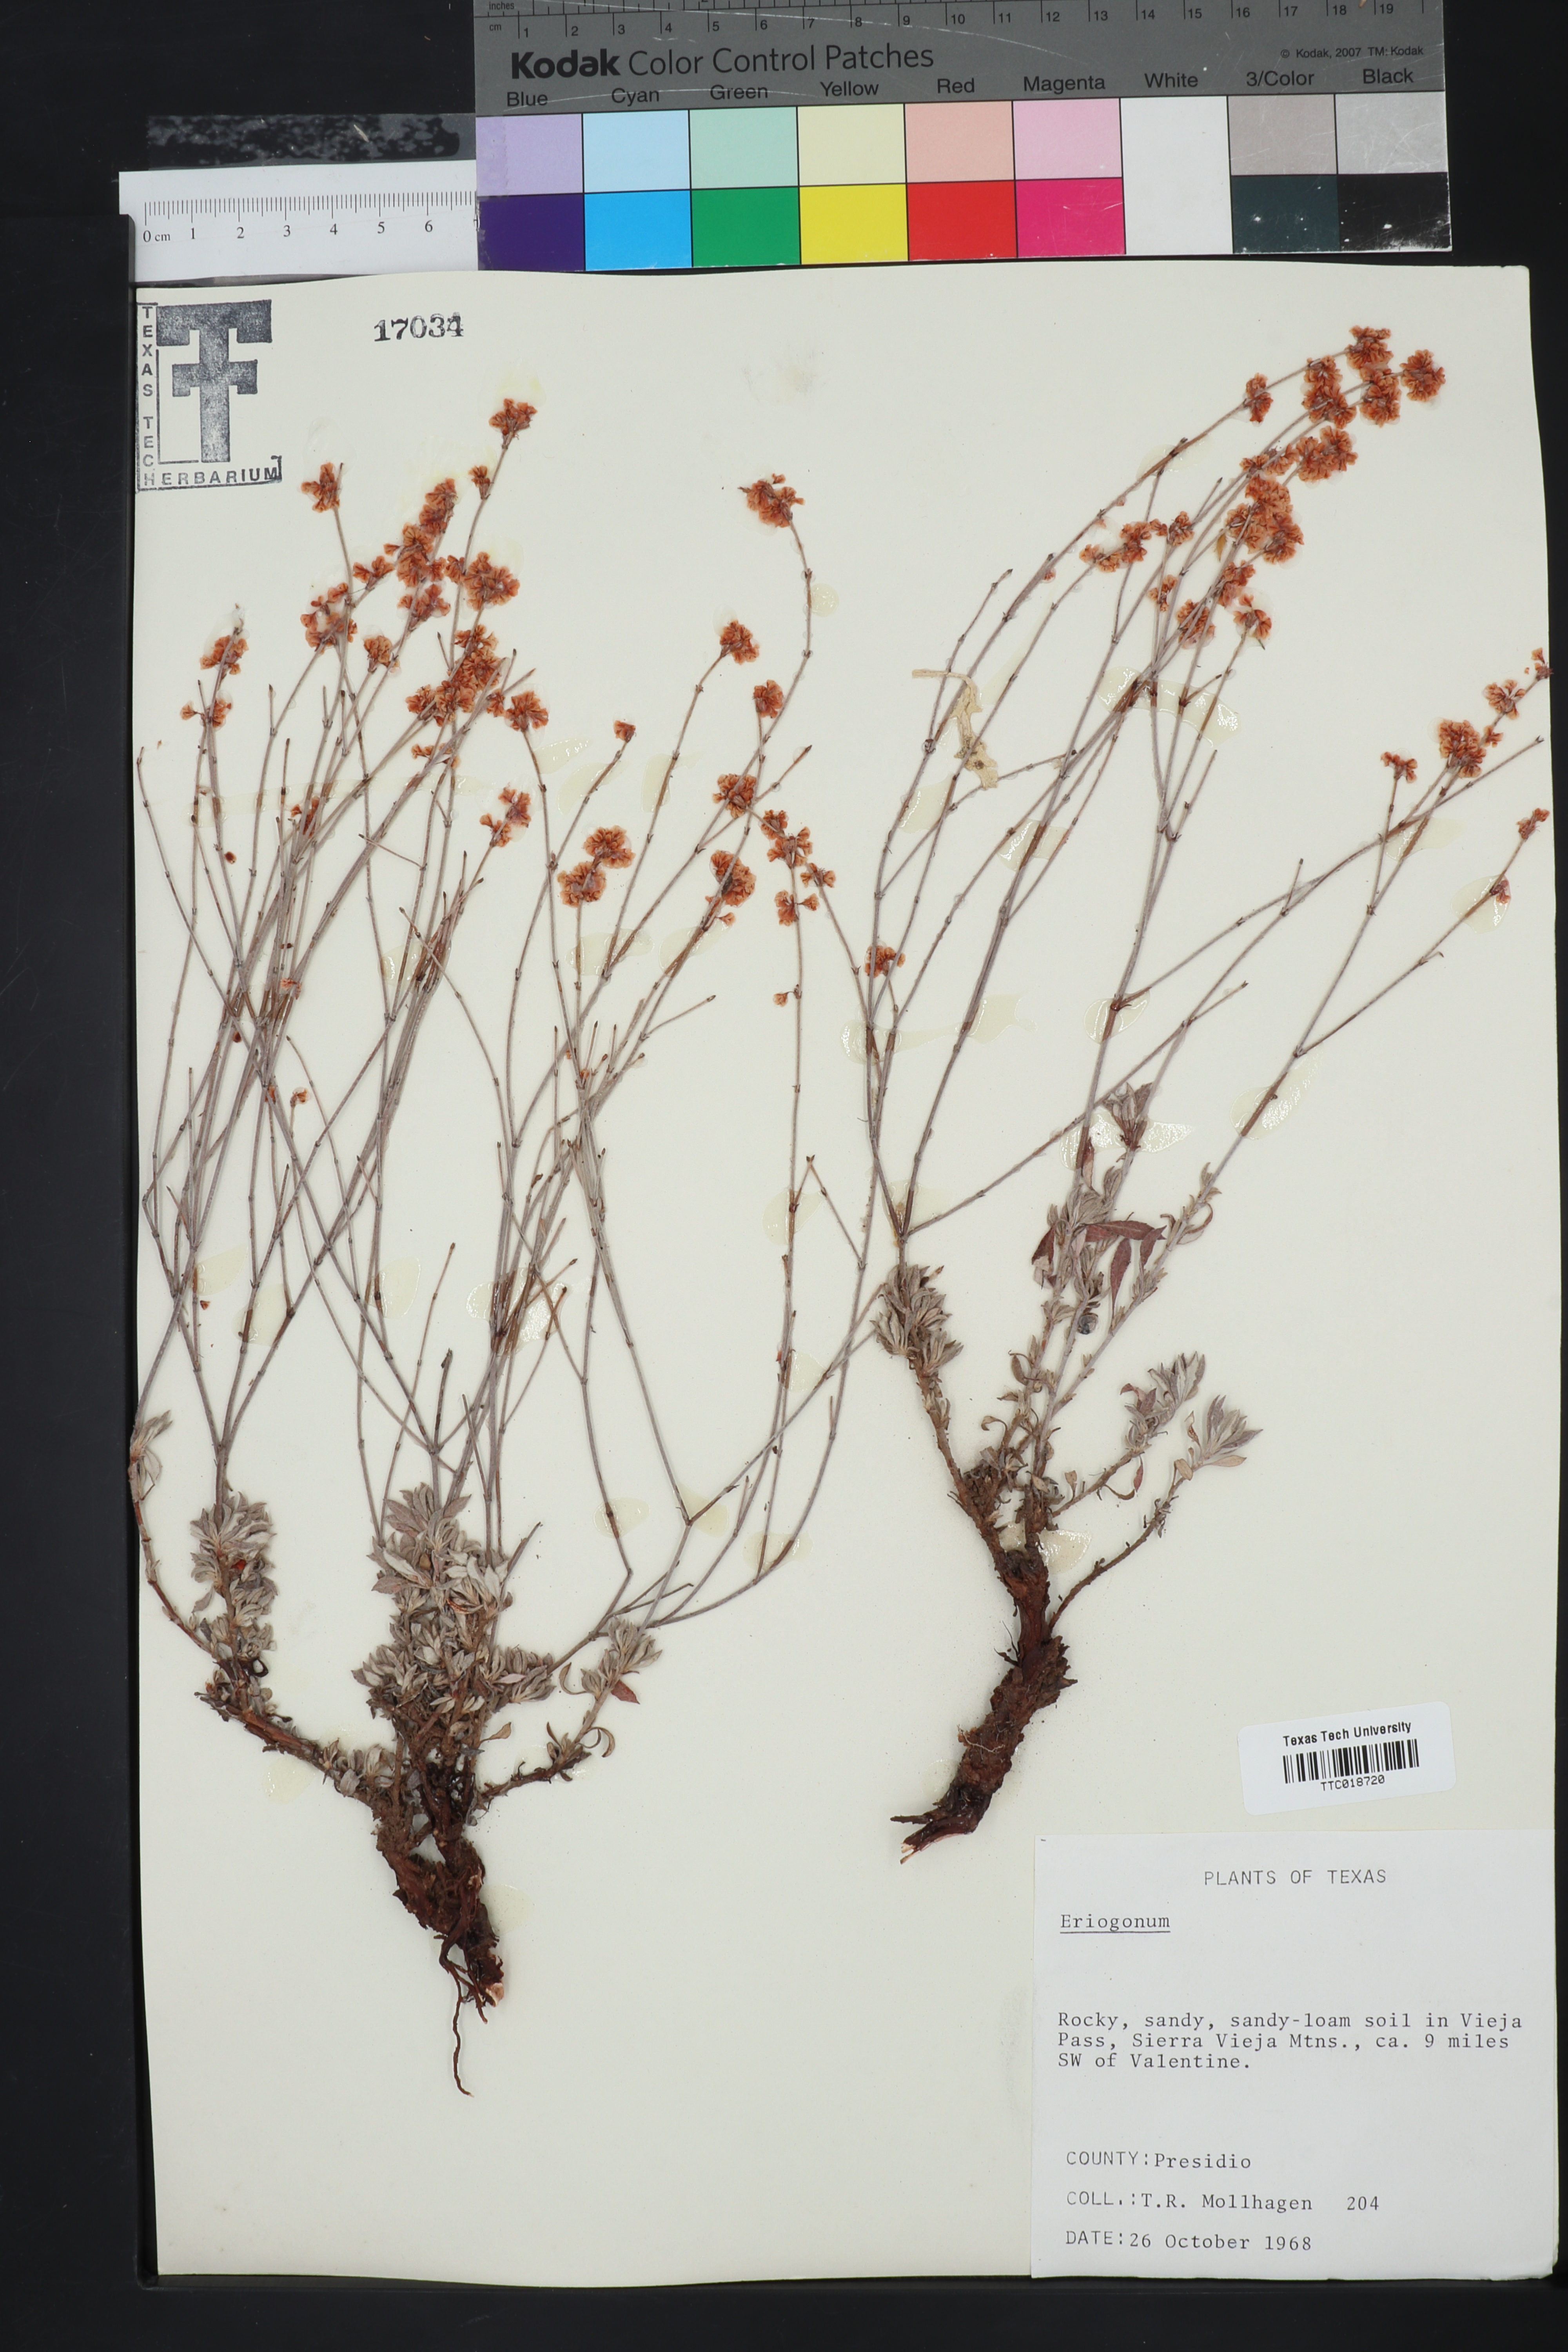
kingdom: Plantae
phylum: Tracheophyta
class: Magnoliopsida
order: Caryophyllales
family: Polygonaceae
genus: Eriogonum
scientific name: Eriogonum
